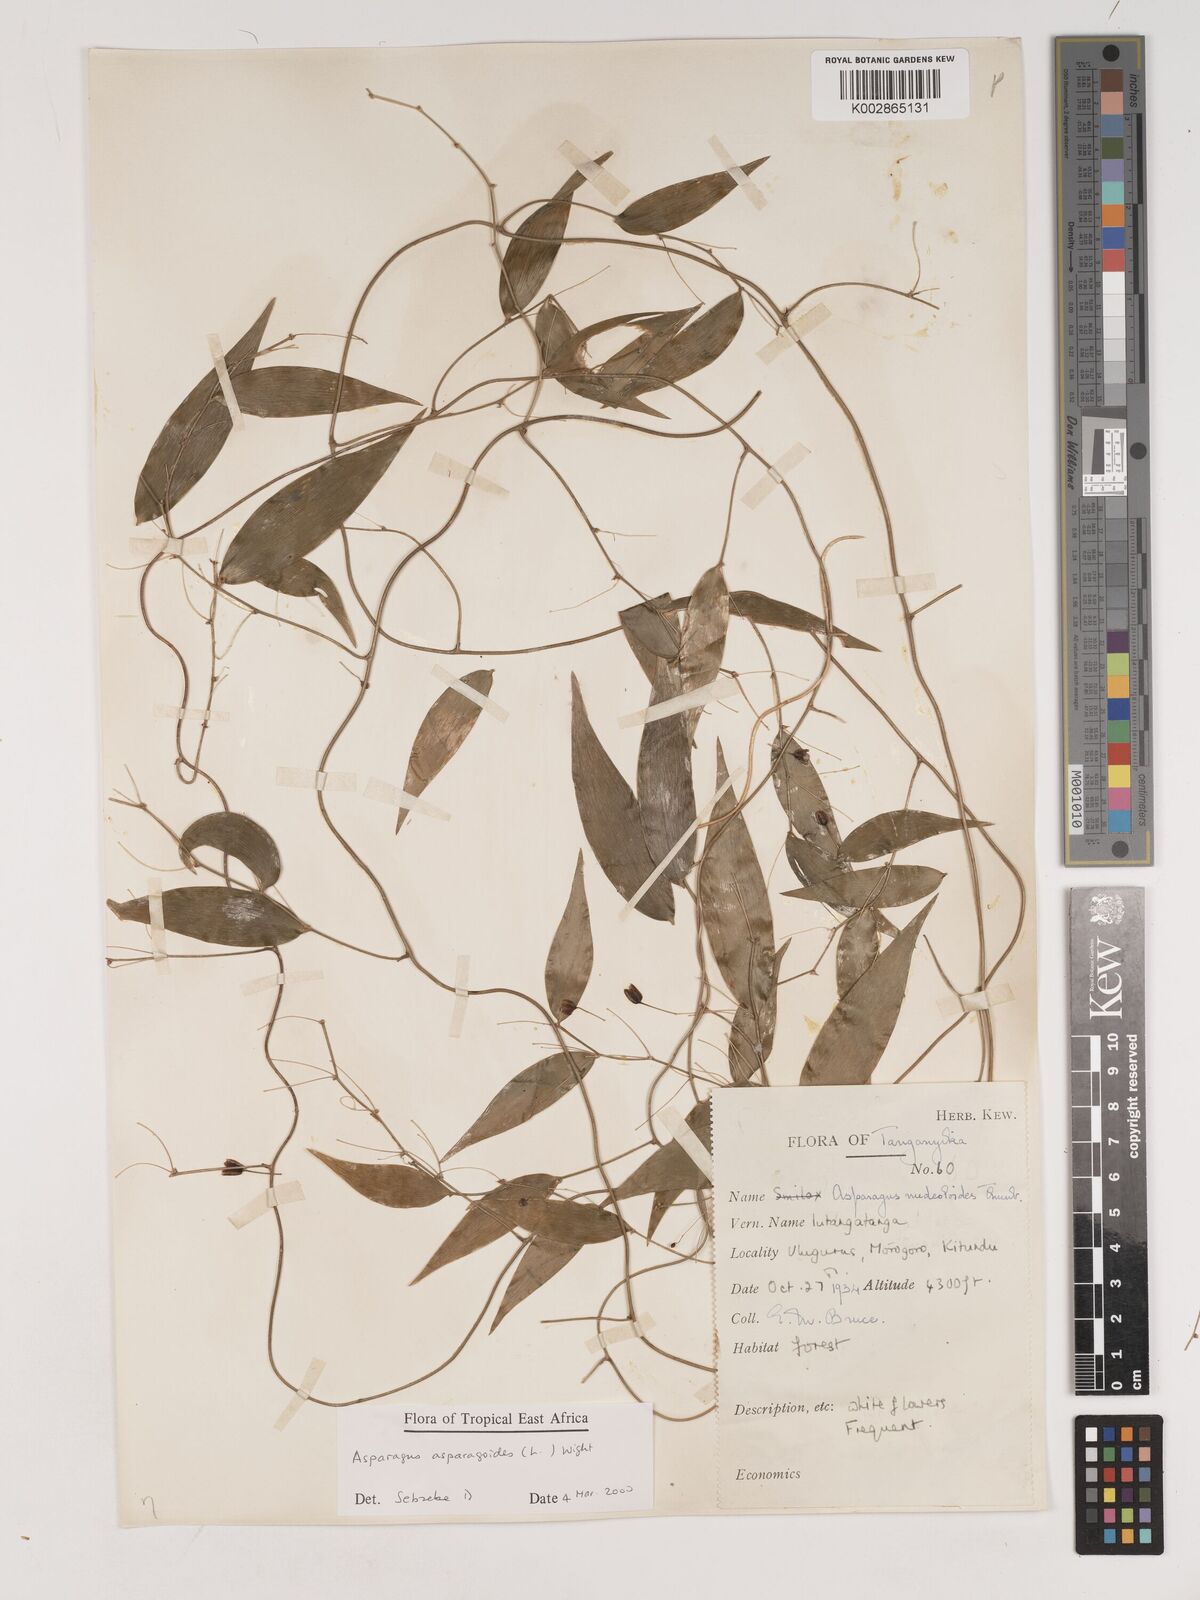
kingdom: Plantae
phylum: Tracheophyta
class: Liliopsida
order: Asparagales
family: Asparagaceae
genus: Asparagus
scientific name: Asparagus
